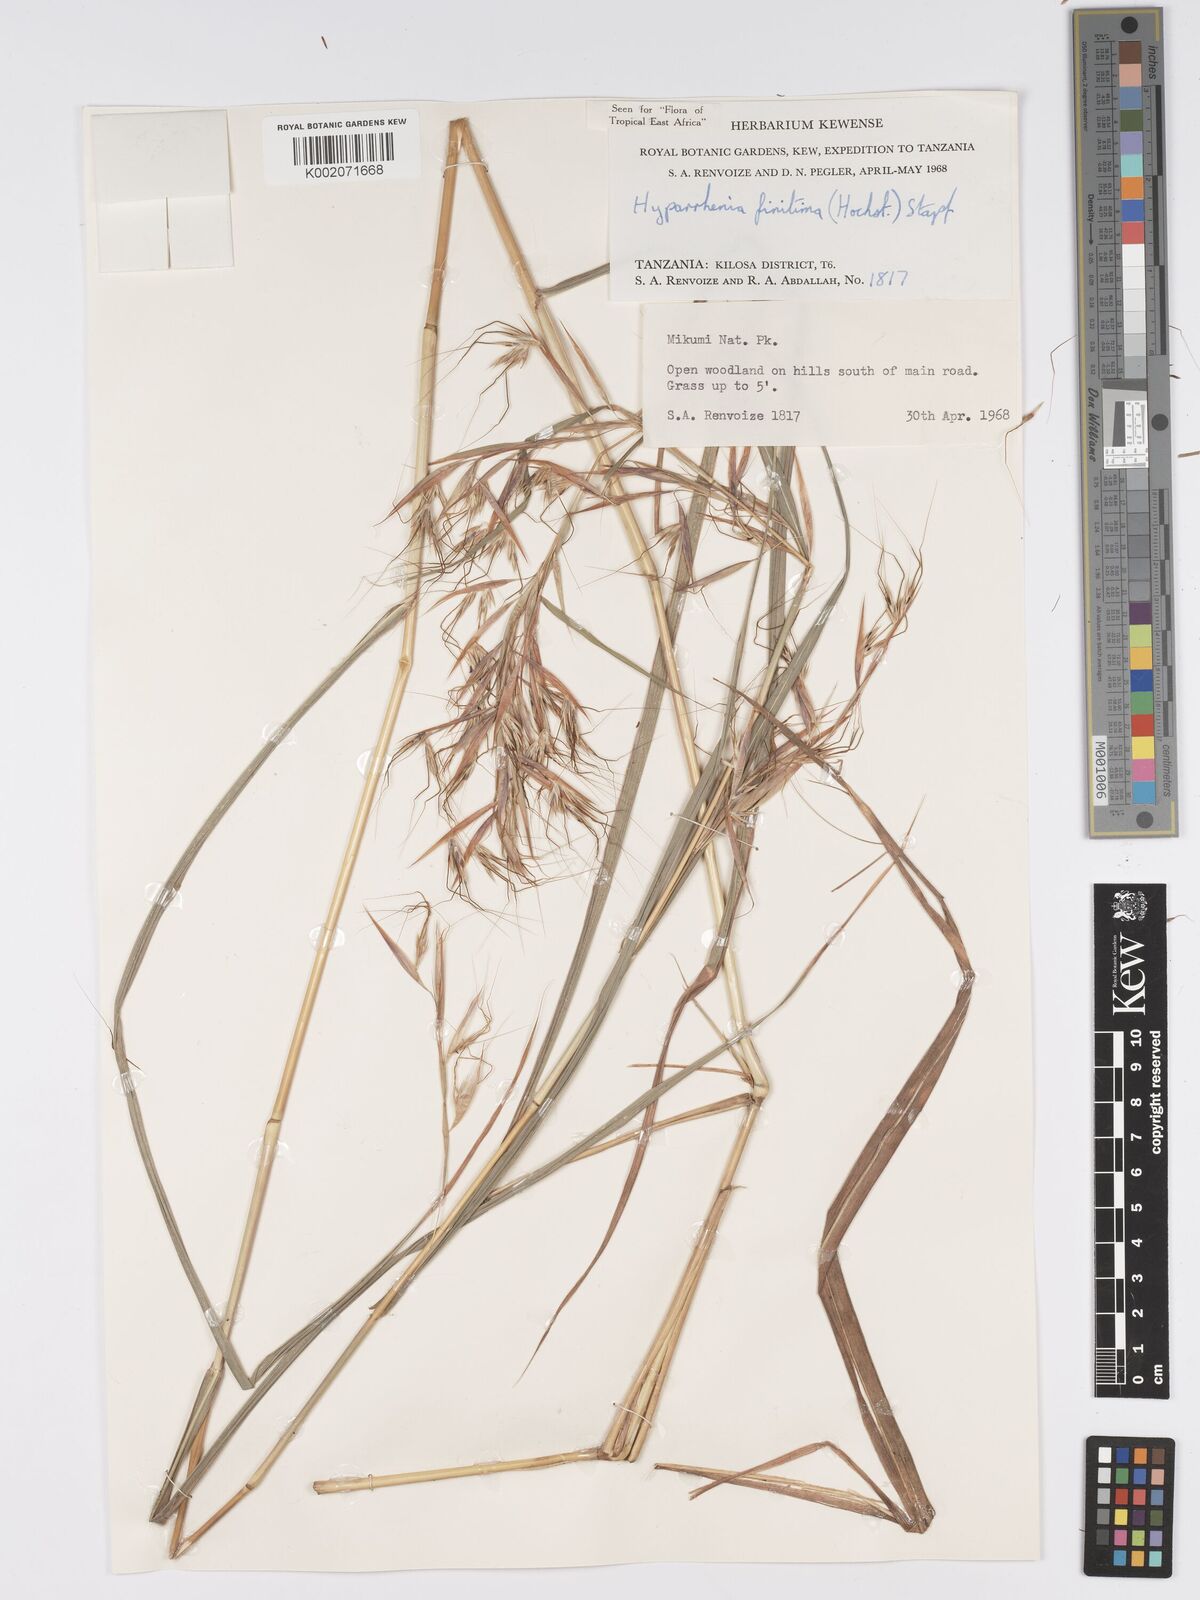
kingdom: Plantae
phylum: Tracheophyta
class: Liliopsida
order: Poales
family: Poaceae
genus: Hyparrhenia
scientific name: Hyparrhenia finitima
